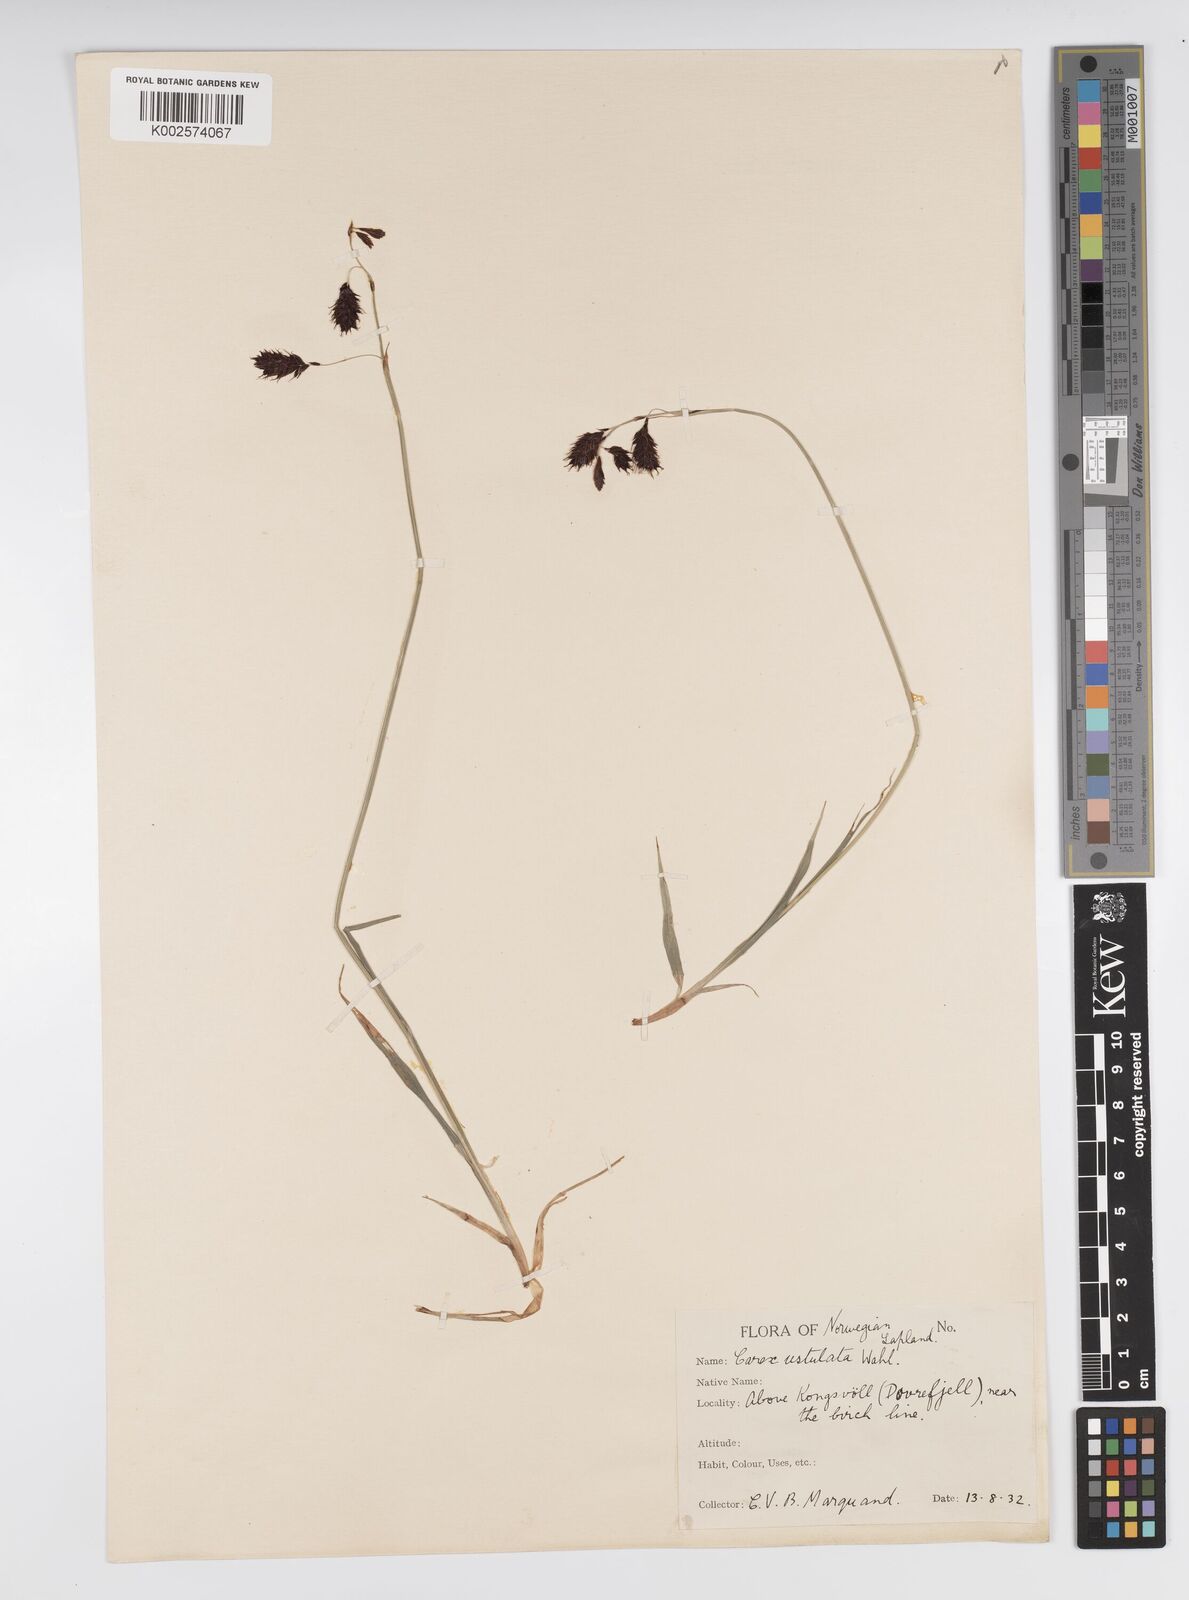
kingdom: Plantae
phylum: Tracheophyta
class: Liliopsida
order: Poales
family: Cyperaceae
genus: Carex
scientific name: Carex atrofusca
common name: Scorched alpine-sedge
